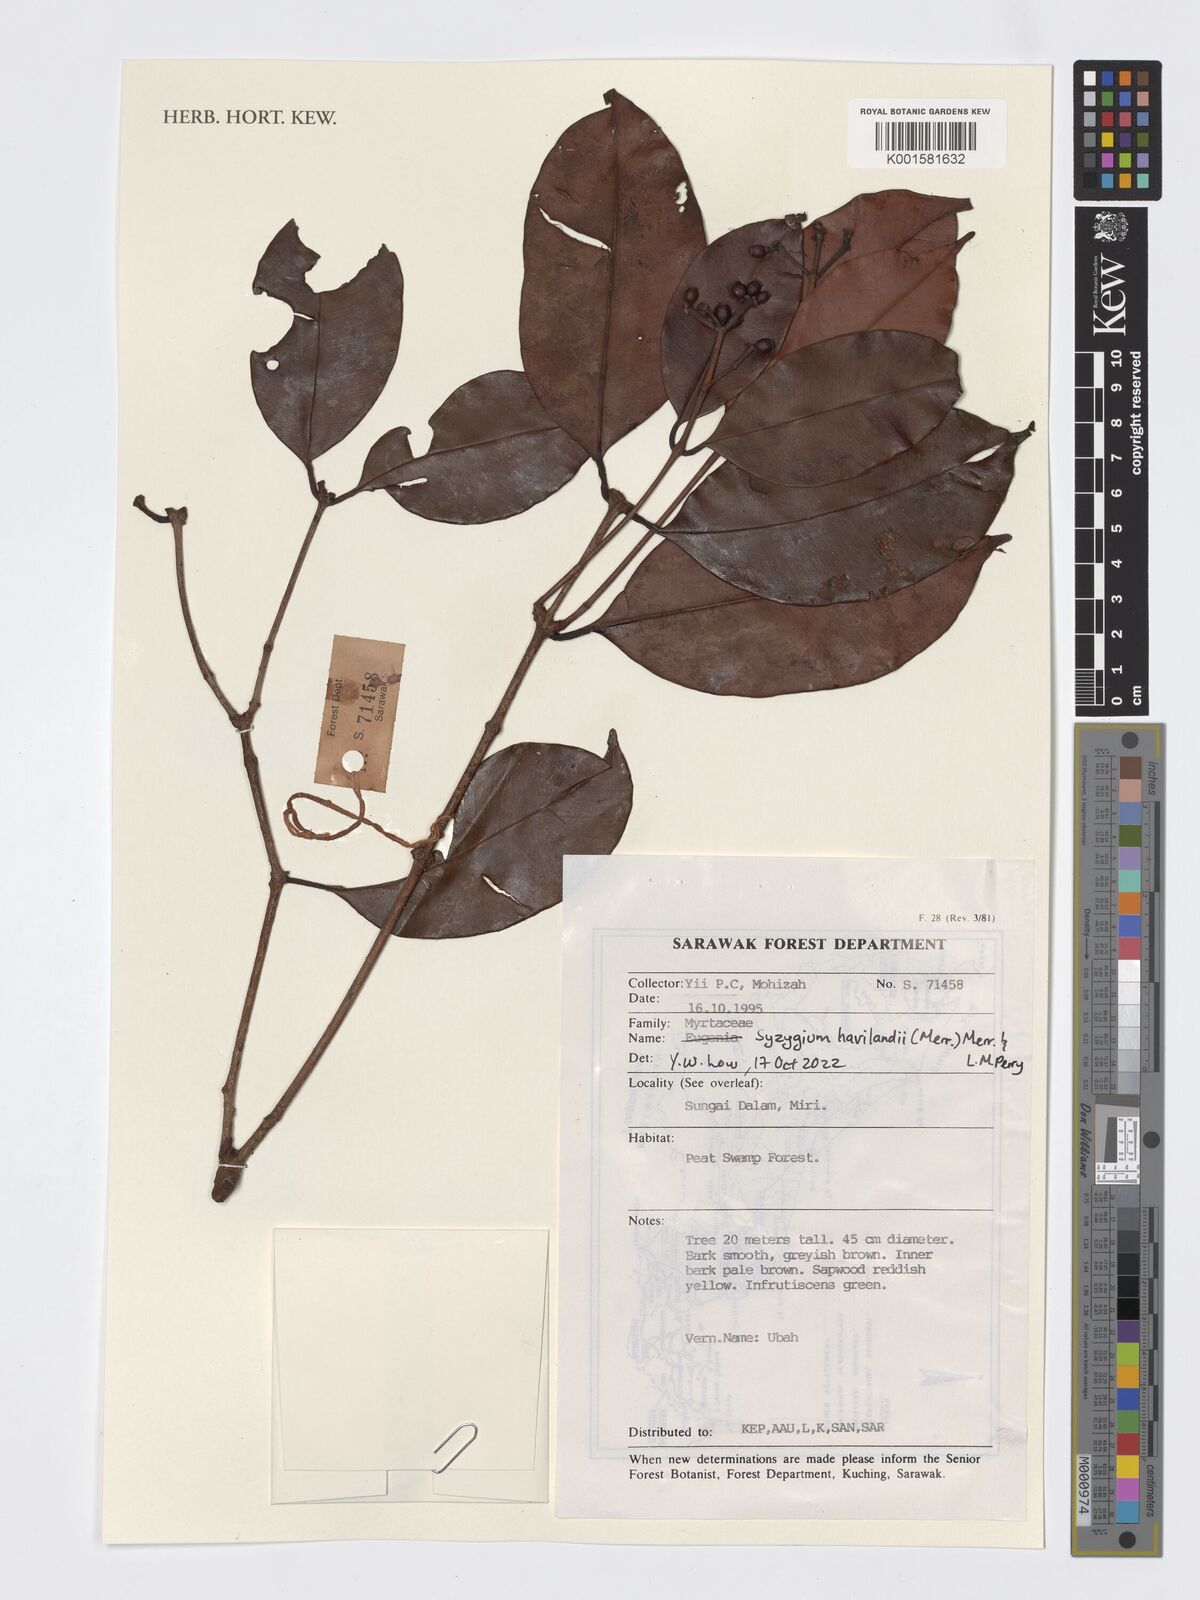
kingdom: Plantae
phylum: Tracheophyta
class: Magnoliopsida
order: Myrtales
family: Myrtaceae
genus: Syzygium
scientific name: Syzygium havilandii
